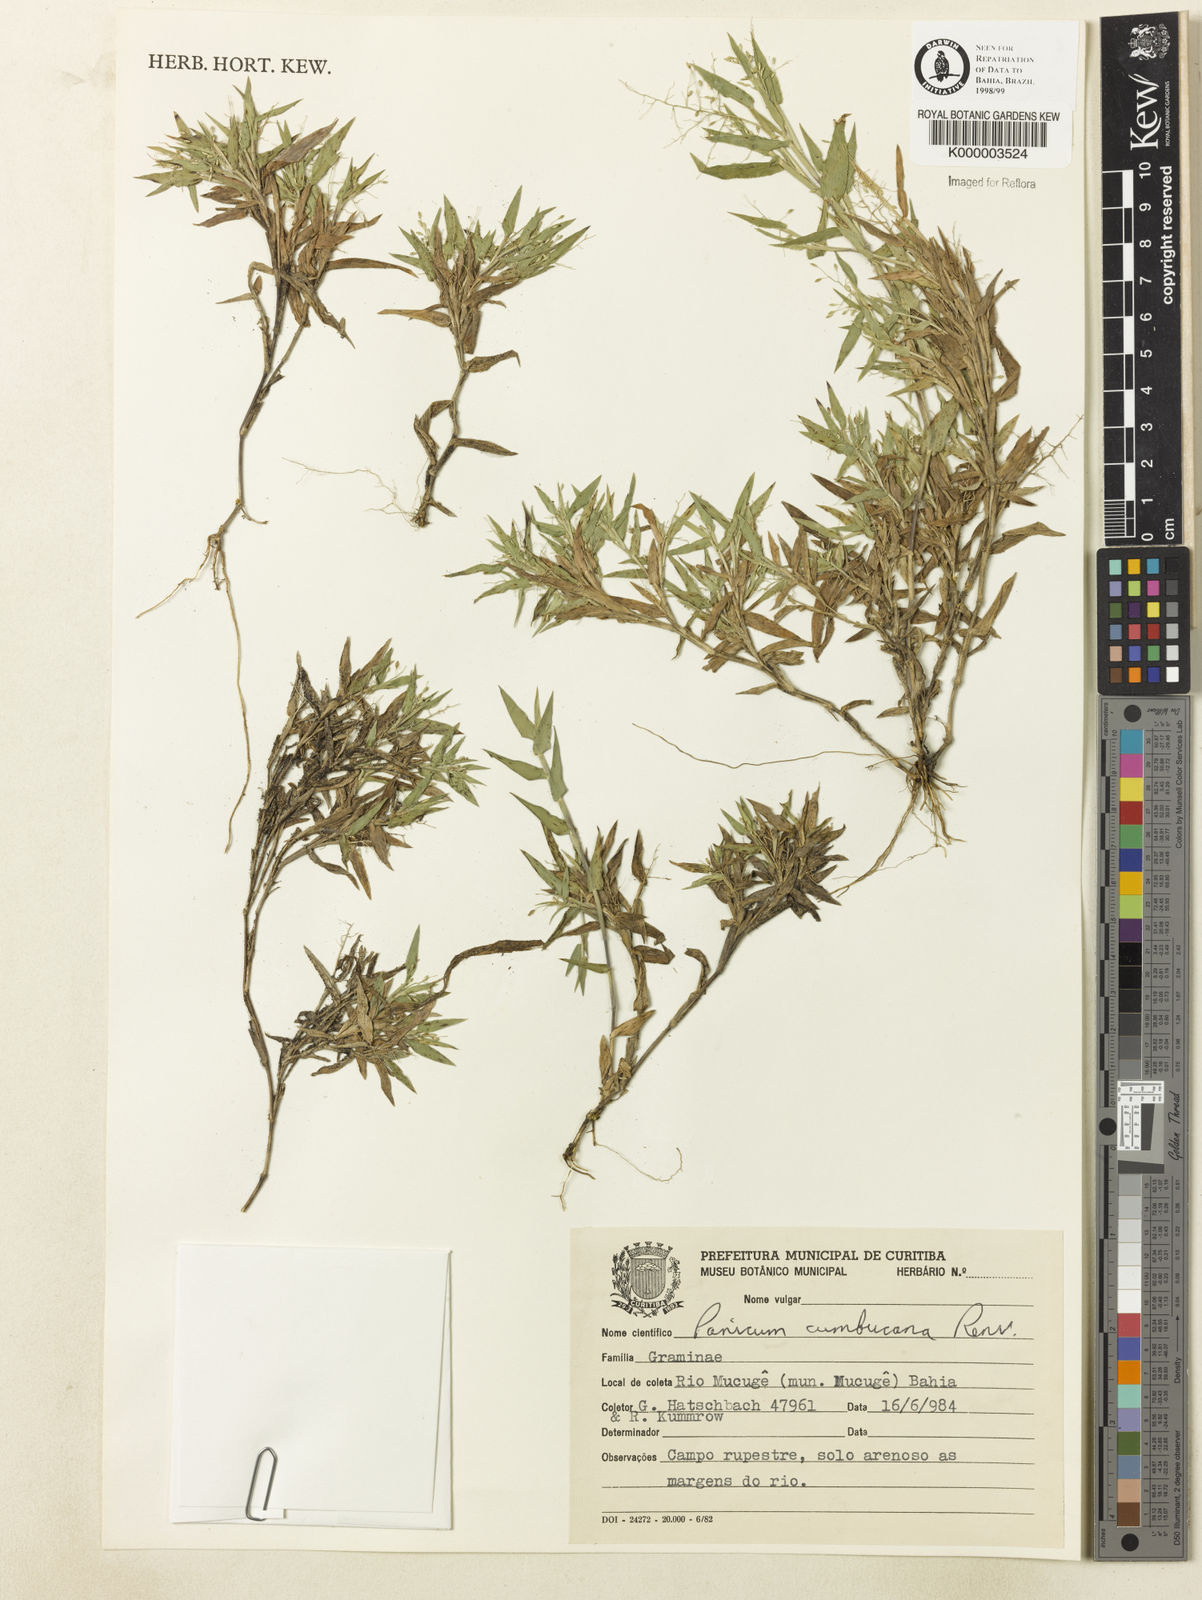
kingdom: Plantae
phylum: Tracheophyta
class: Liliopsida
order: Poales
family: Poaceae
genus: Dichanthelium
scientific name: Dichanthelium cumbucanum
